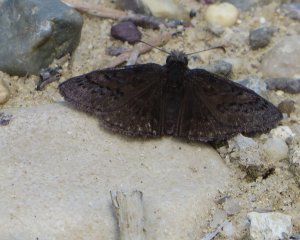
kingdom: Animalia
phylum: Arthropoda
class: Insecta
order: Lepidoptera
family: Hesperiidae
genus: Erynnis
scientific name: Erynnis brizo
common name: Sleepy Duskywing
